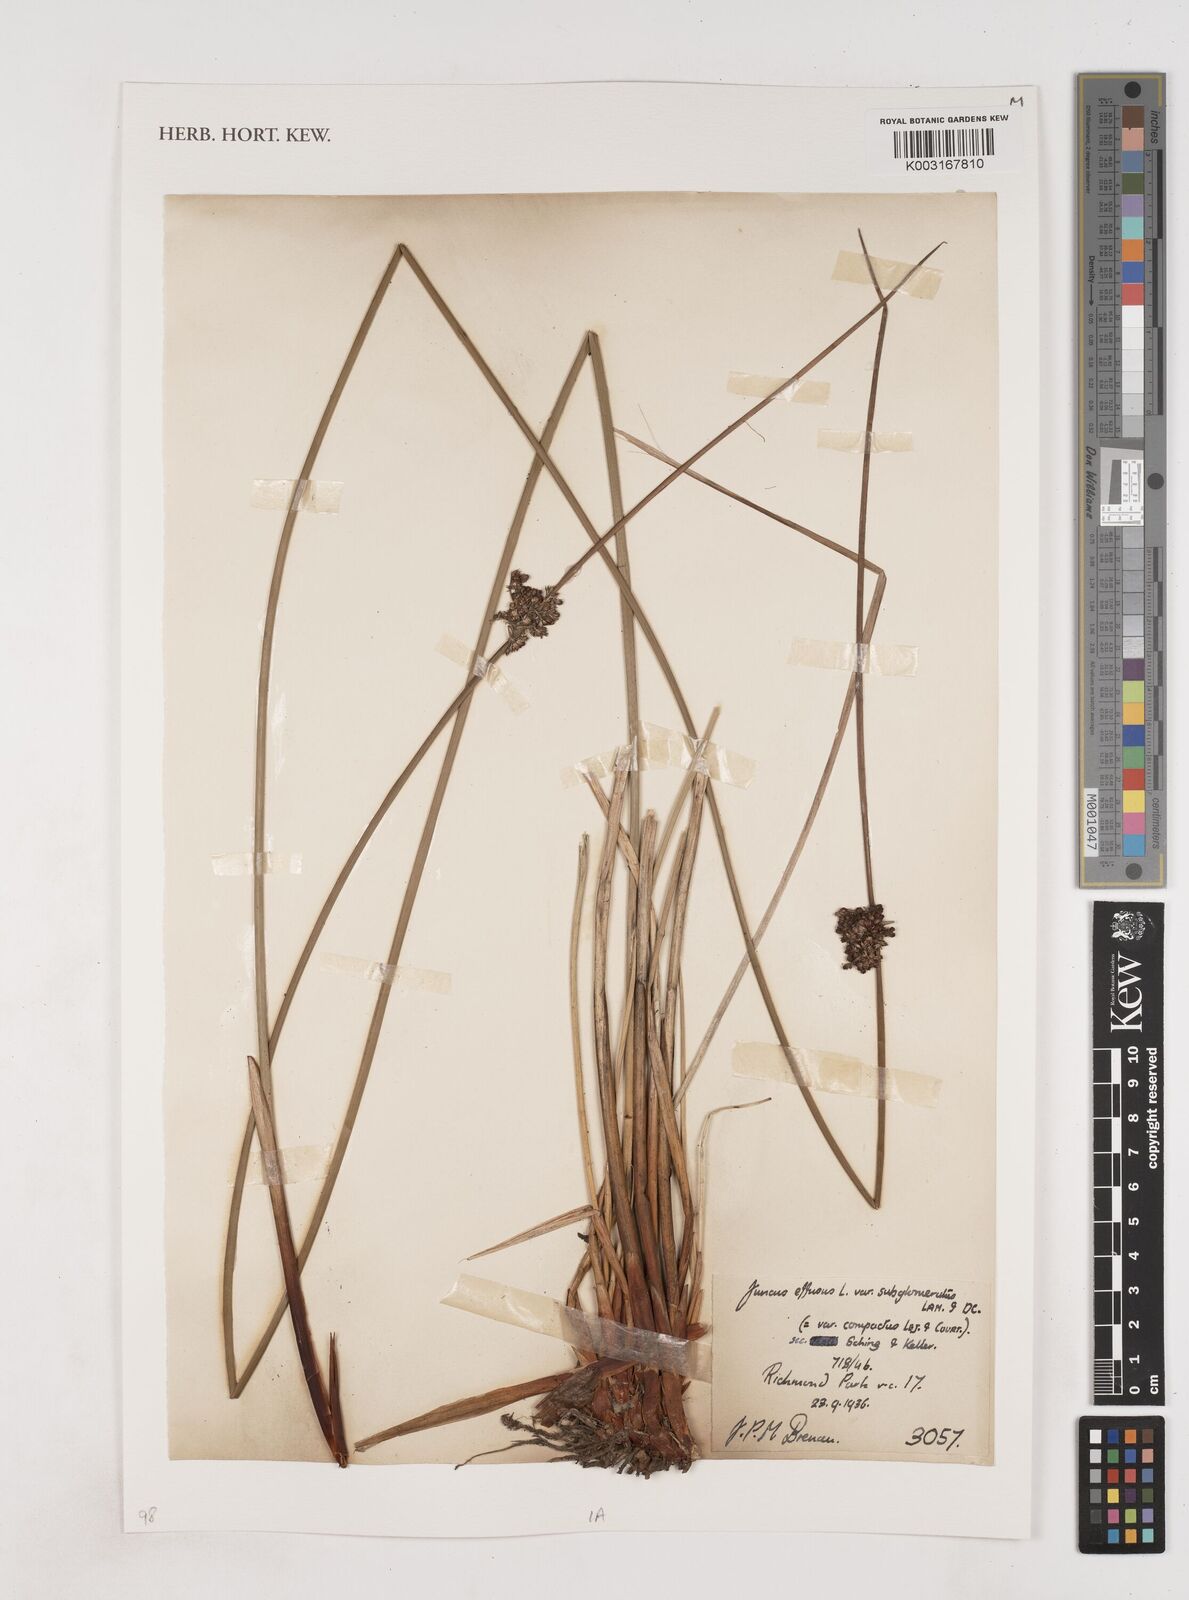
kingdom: Plantae
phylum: Tracheophyta
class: Liliopsida
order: Poales
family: Juncaceae
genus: Juncus
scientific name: Juncus effusus
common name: Soft rush
